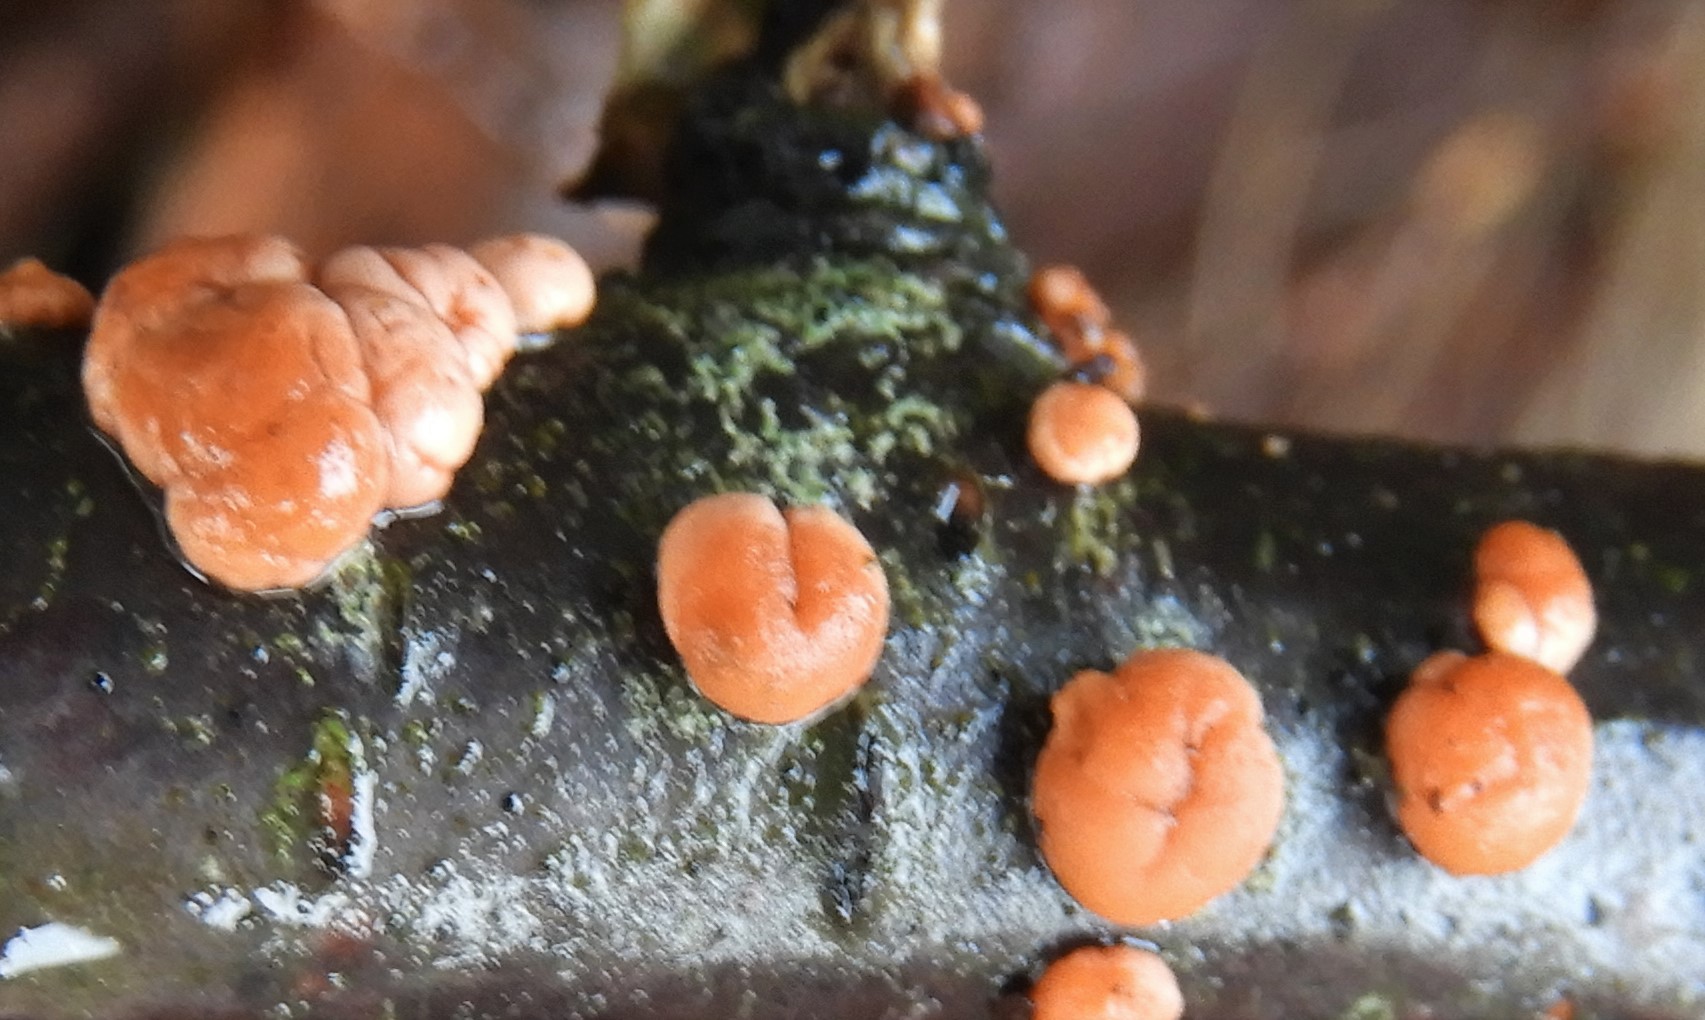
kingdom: Fungi
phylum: Ascomycota
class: Sordariomycetes
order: Hypocreales
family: Nectriaceae
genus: Nectria
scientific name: Nectria cinnabarina
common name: almindelig cinnobersvamp
